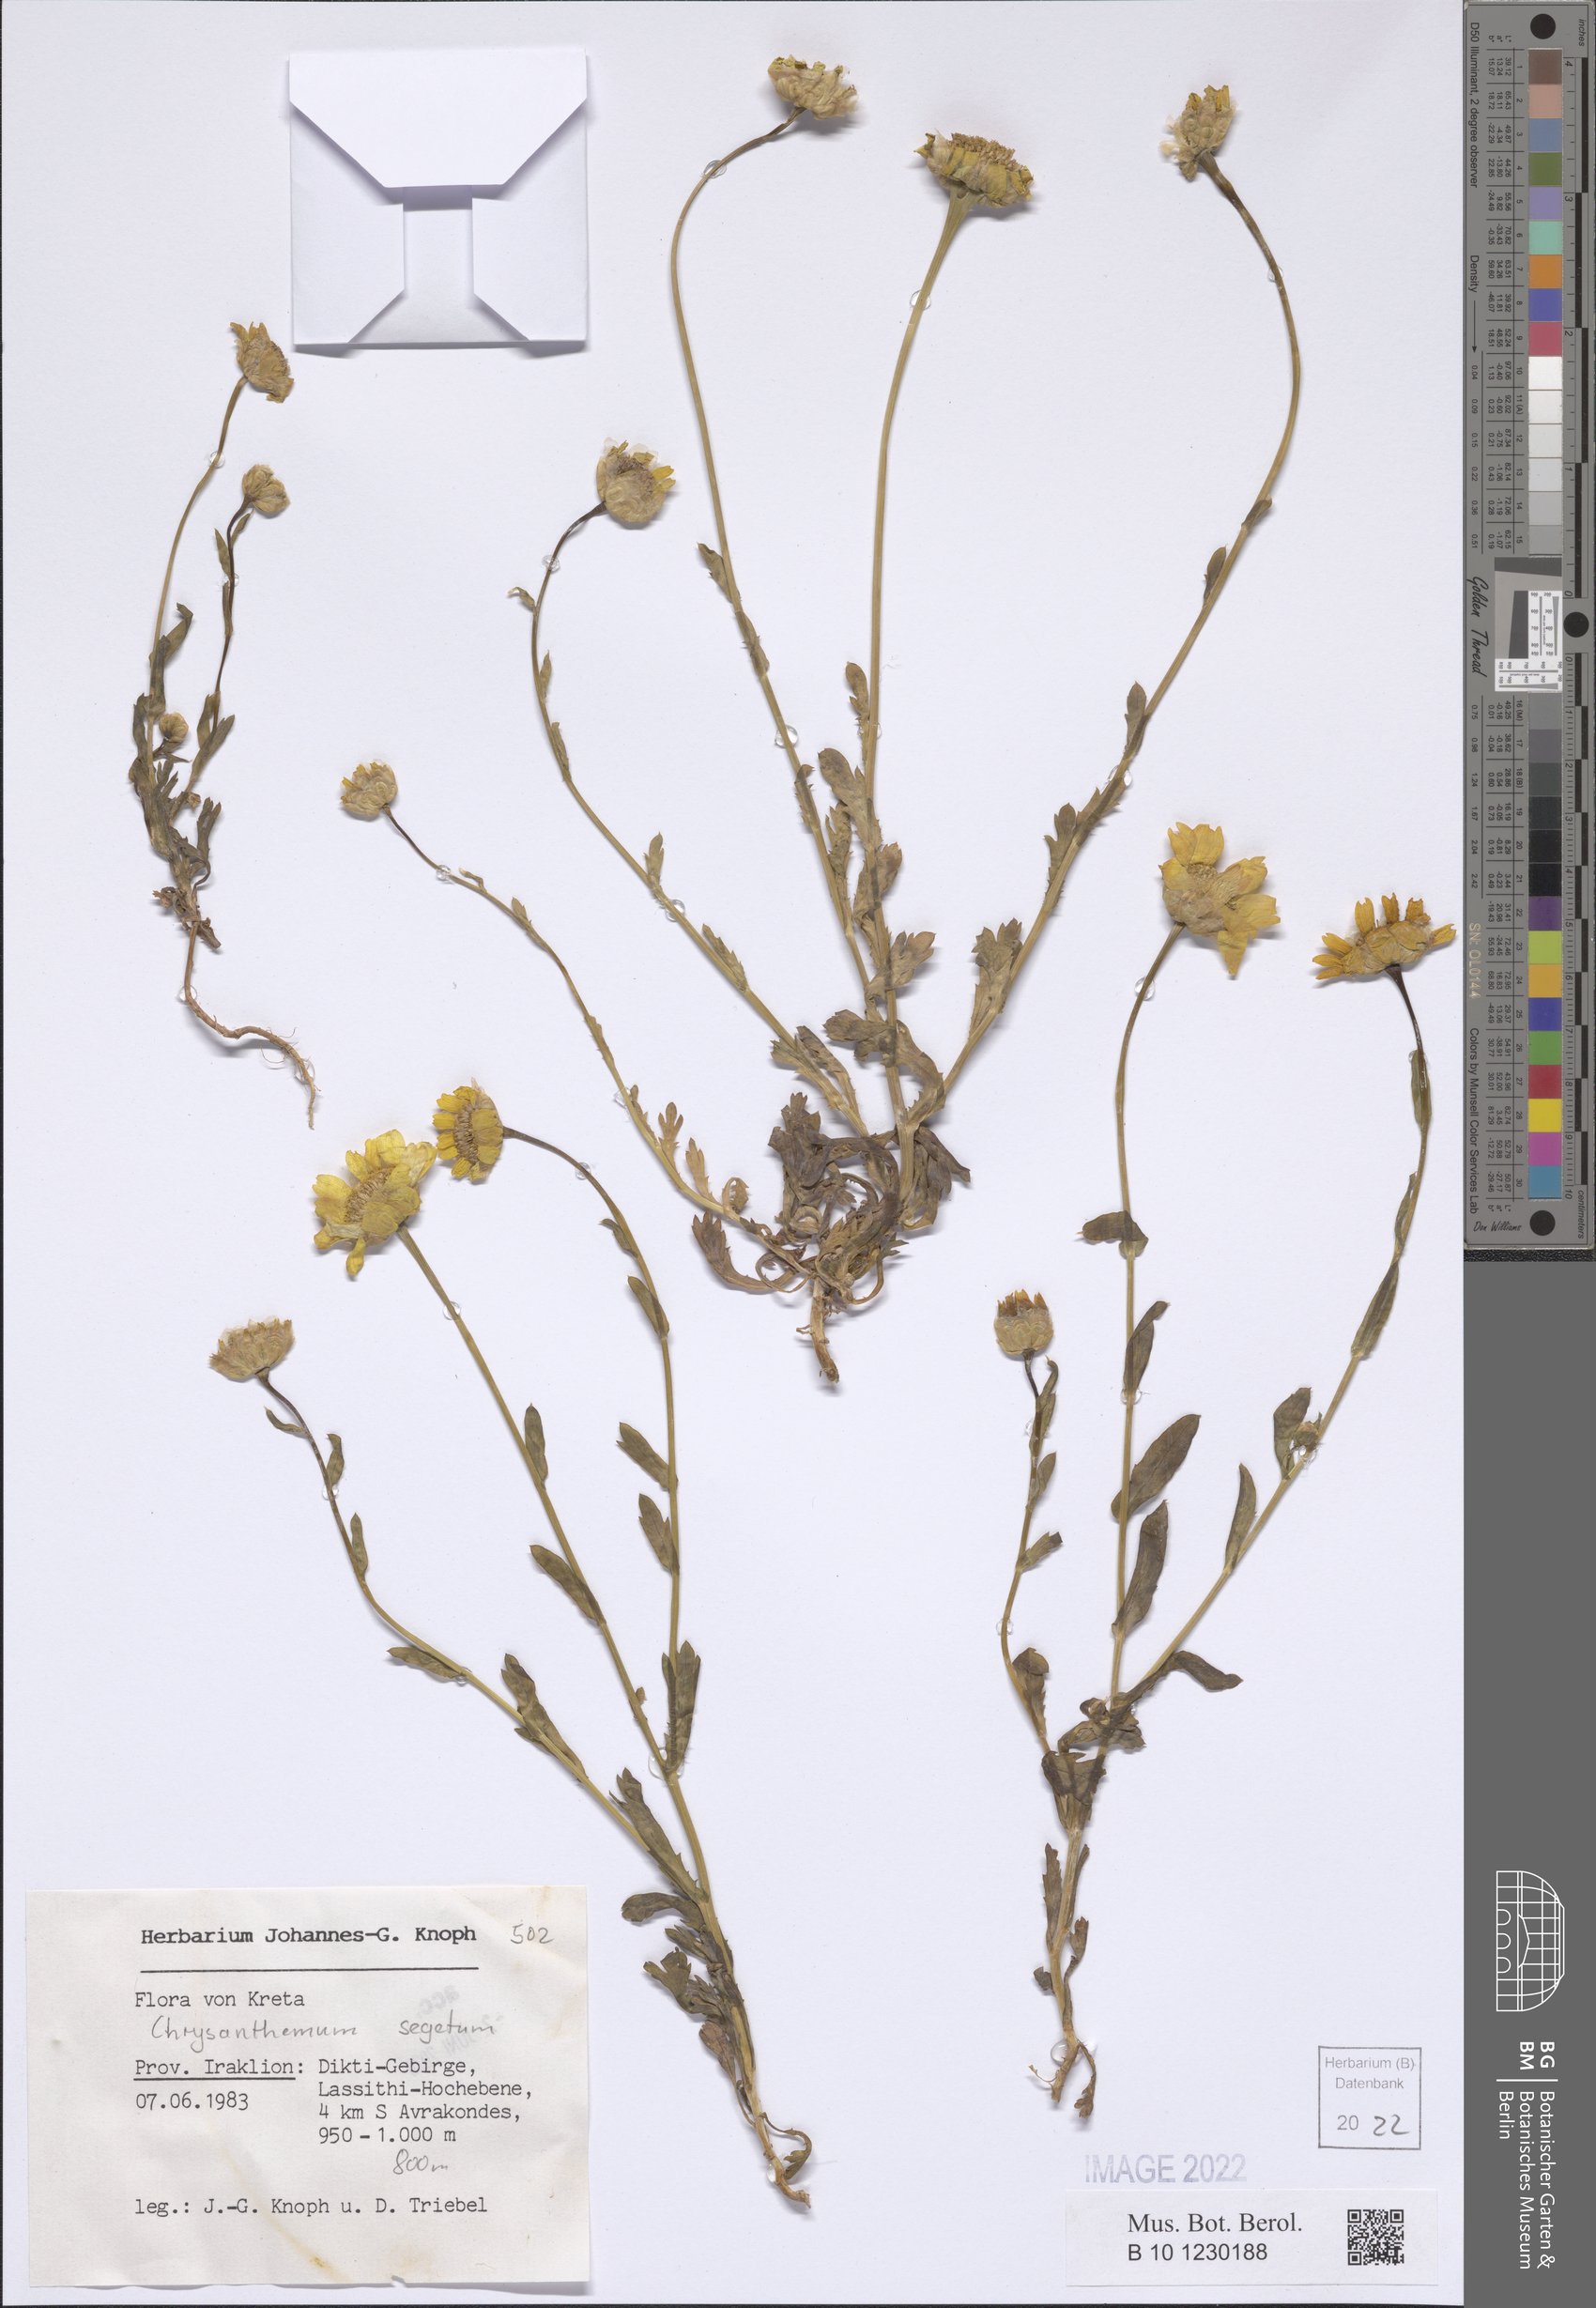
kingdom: Plantae
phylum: Tracheophyta
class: Magnoliopsida
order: Asterales
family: Asteraceae
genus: Glebionis
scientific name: Glebionis segetum
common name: Corndaisy
